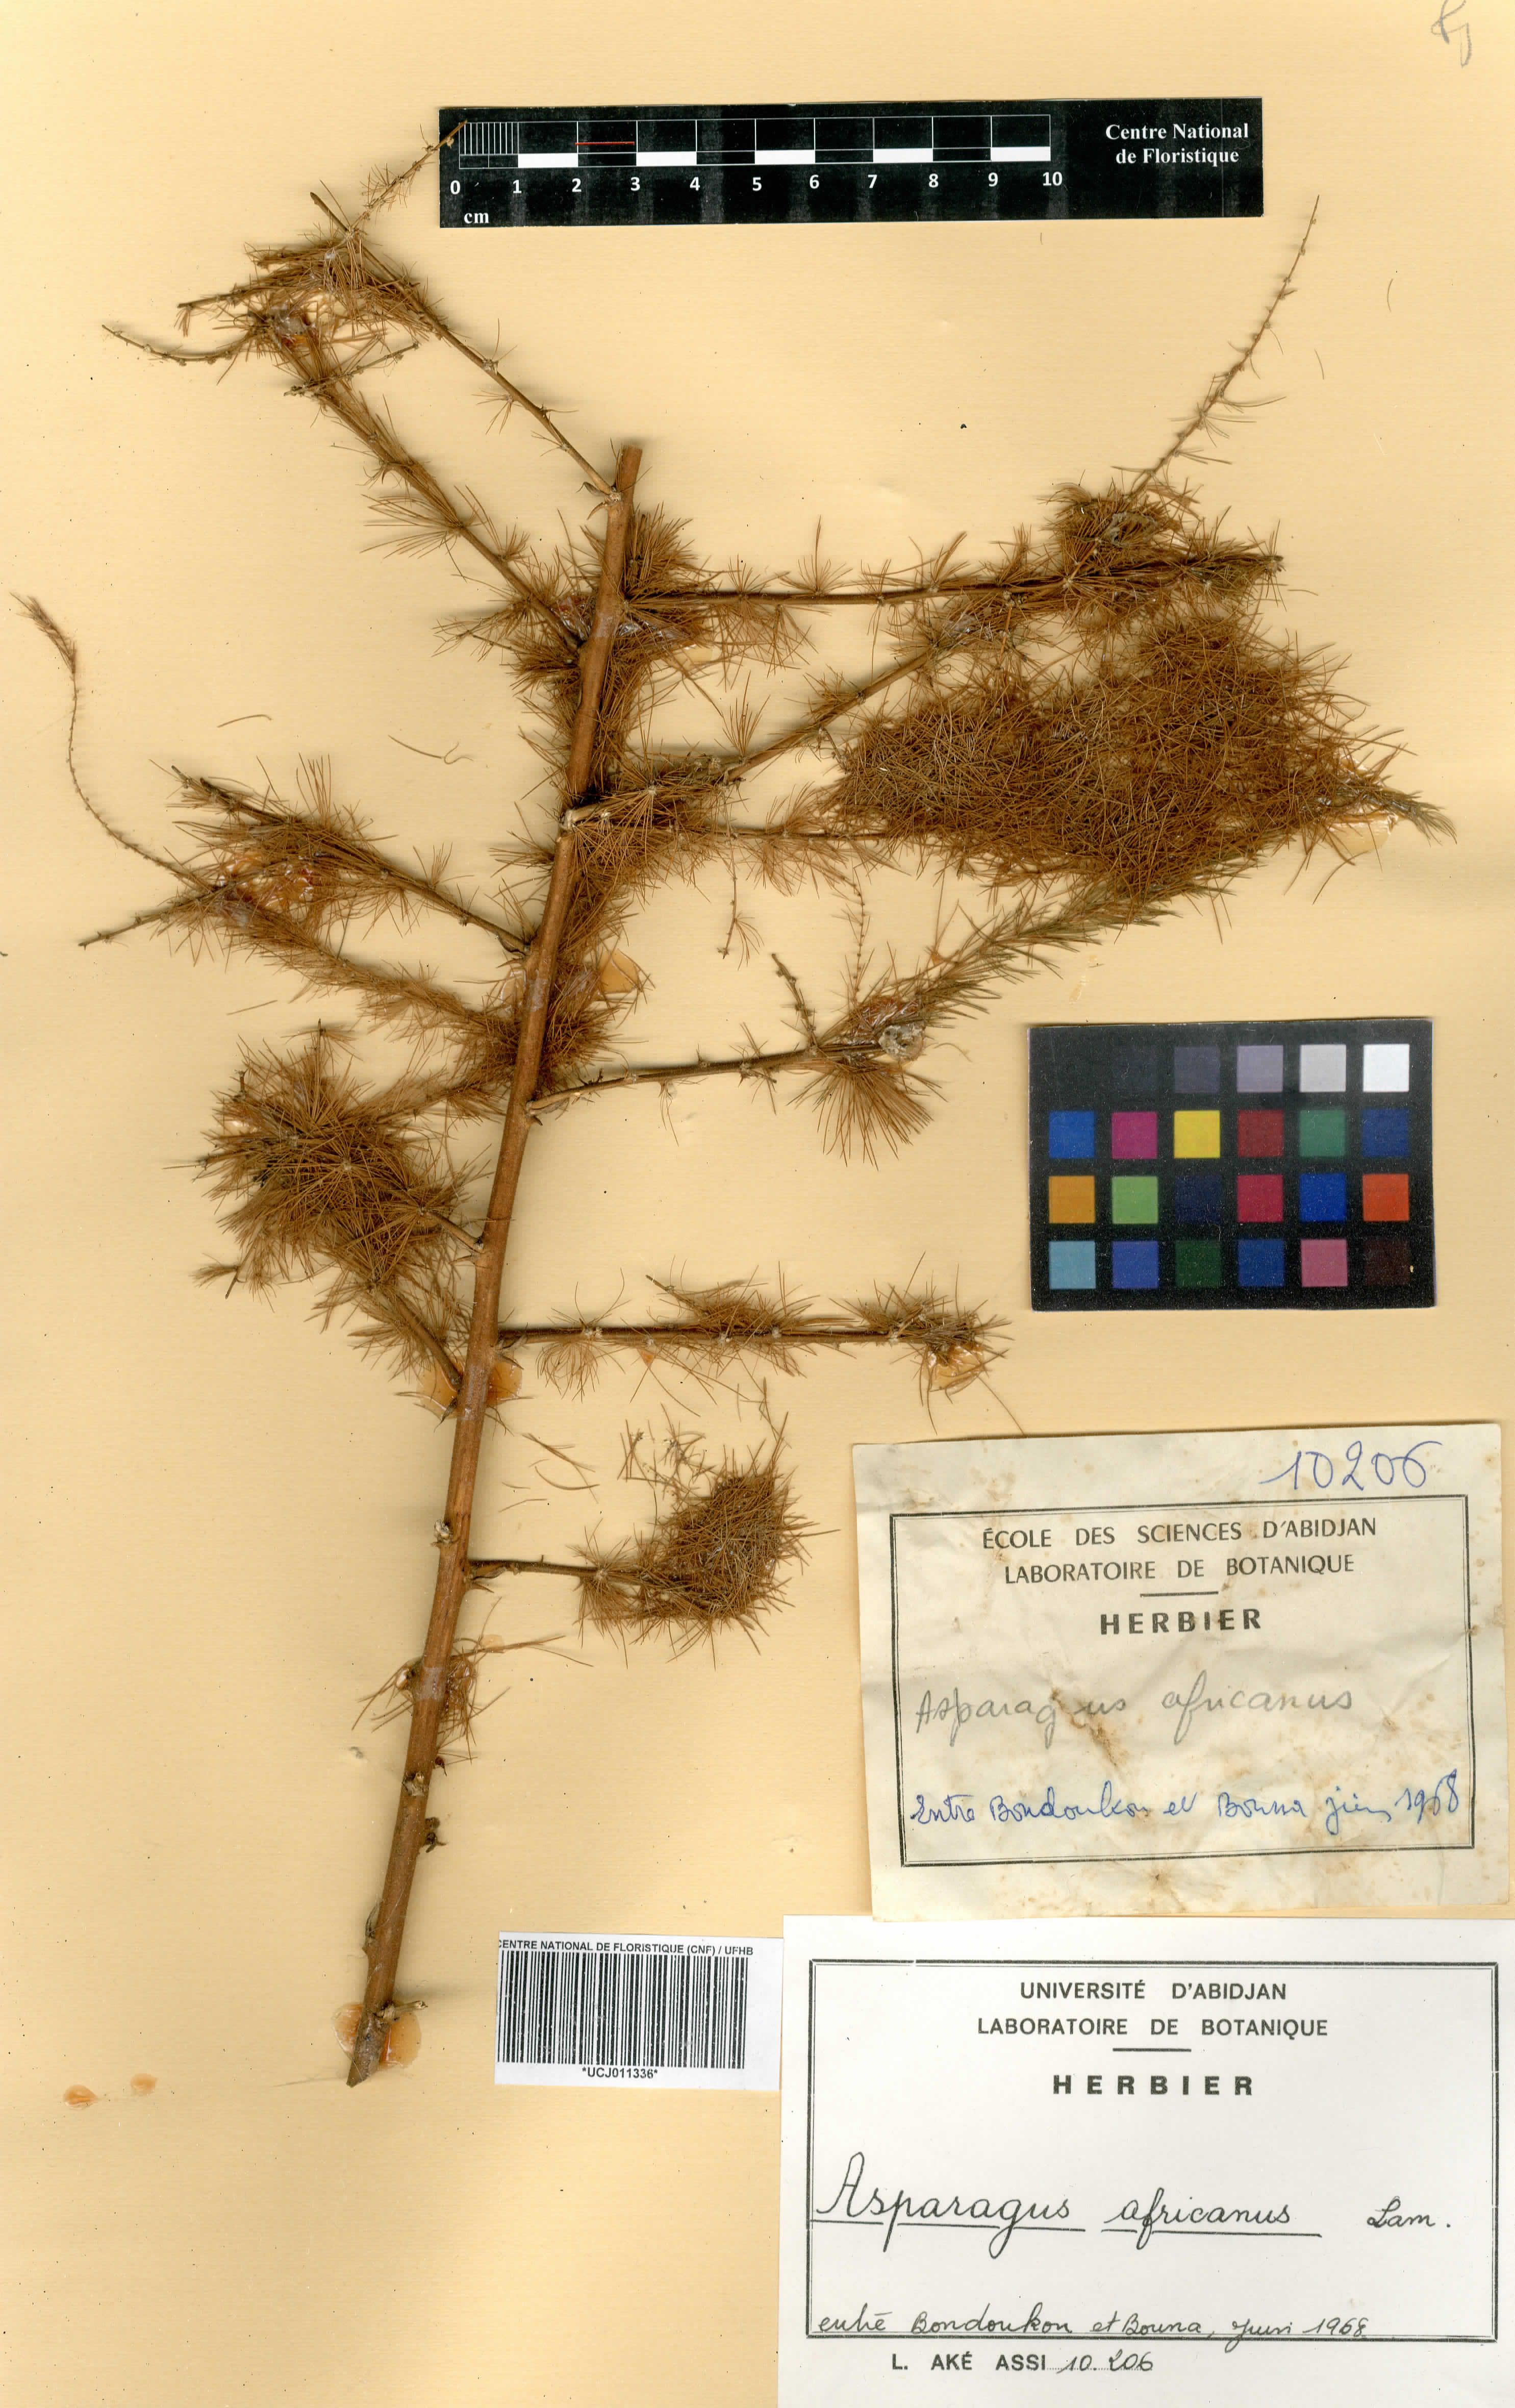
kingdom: Plantae
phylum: Tracheophyta
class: Liliopsida
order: Asparagales
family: Asparagaceae
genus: Asparagus
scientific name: Asparagus africanus
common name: Asparagus-fern
